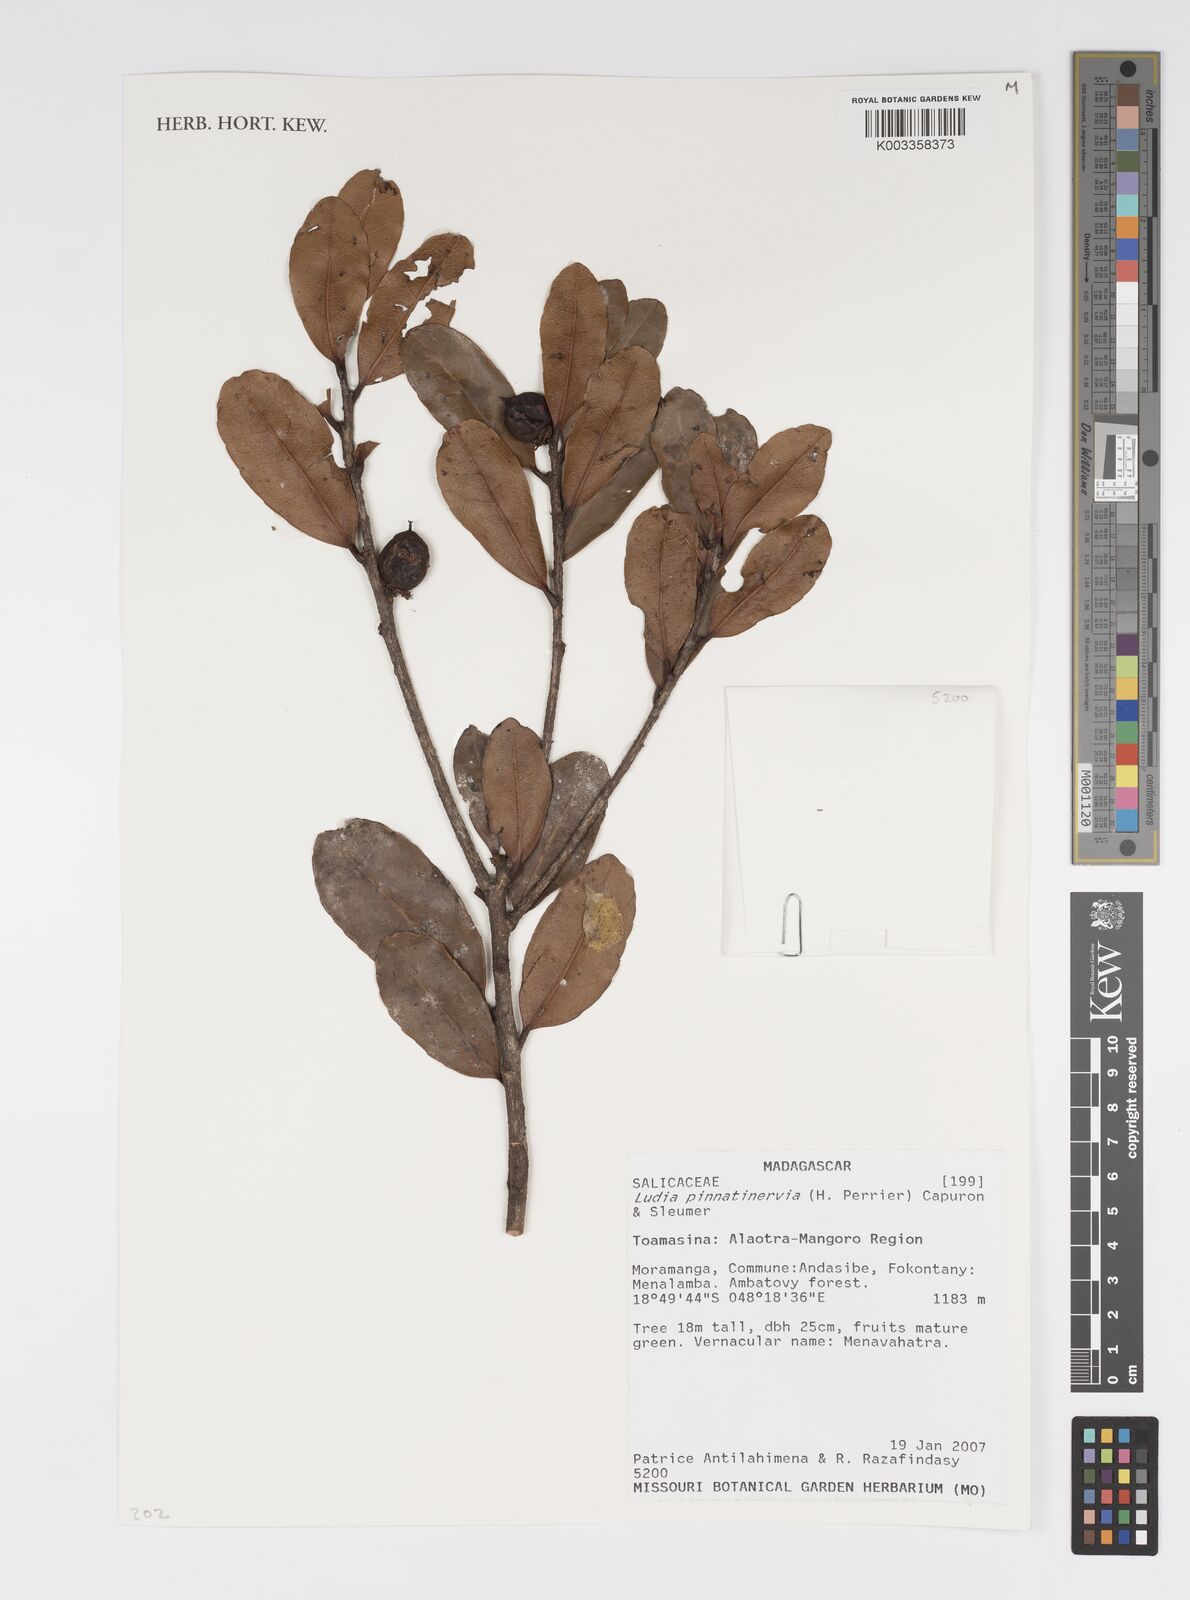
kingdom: Plantae
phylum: Tracheophyta
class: Magnoliopsida
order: Malpighiales
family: Salicaceae
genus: Ludia
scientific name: Ludia pinnatinervia
